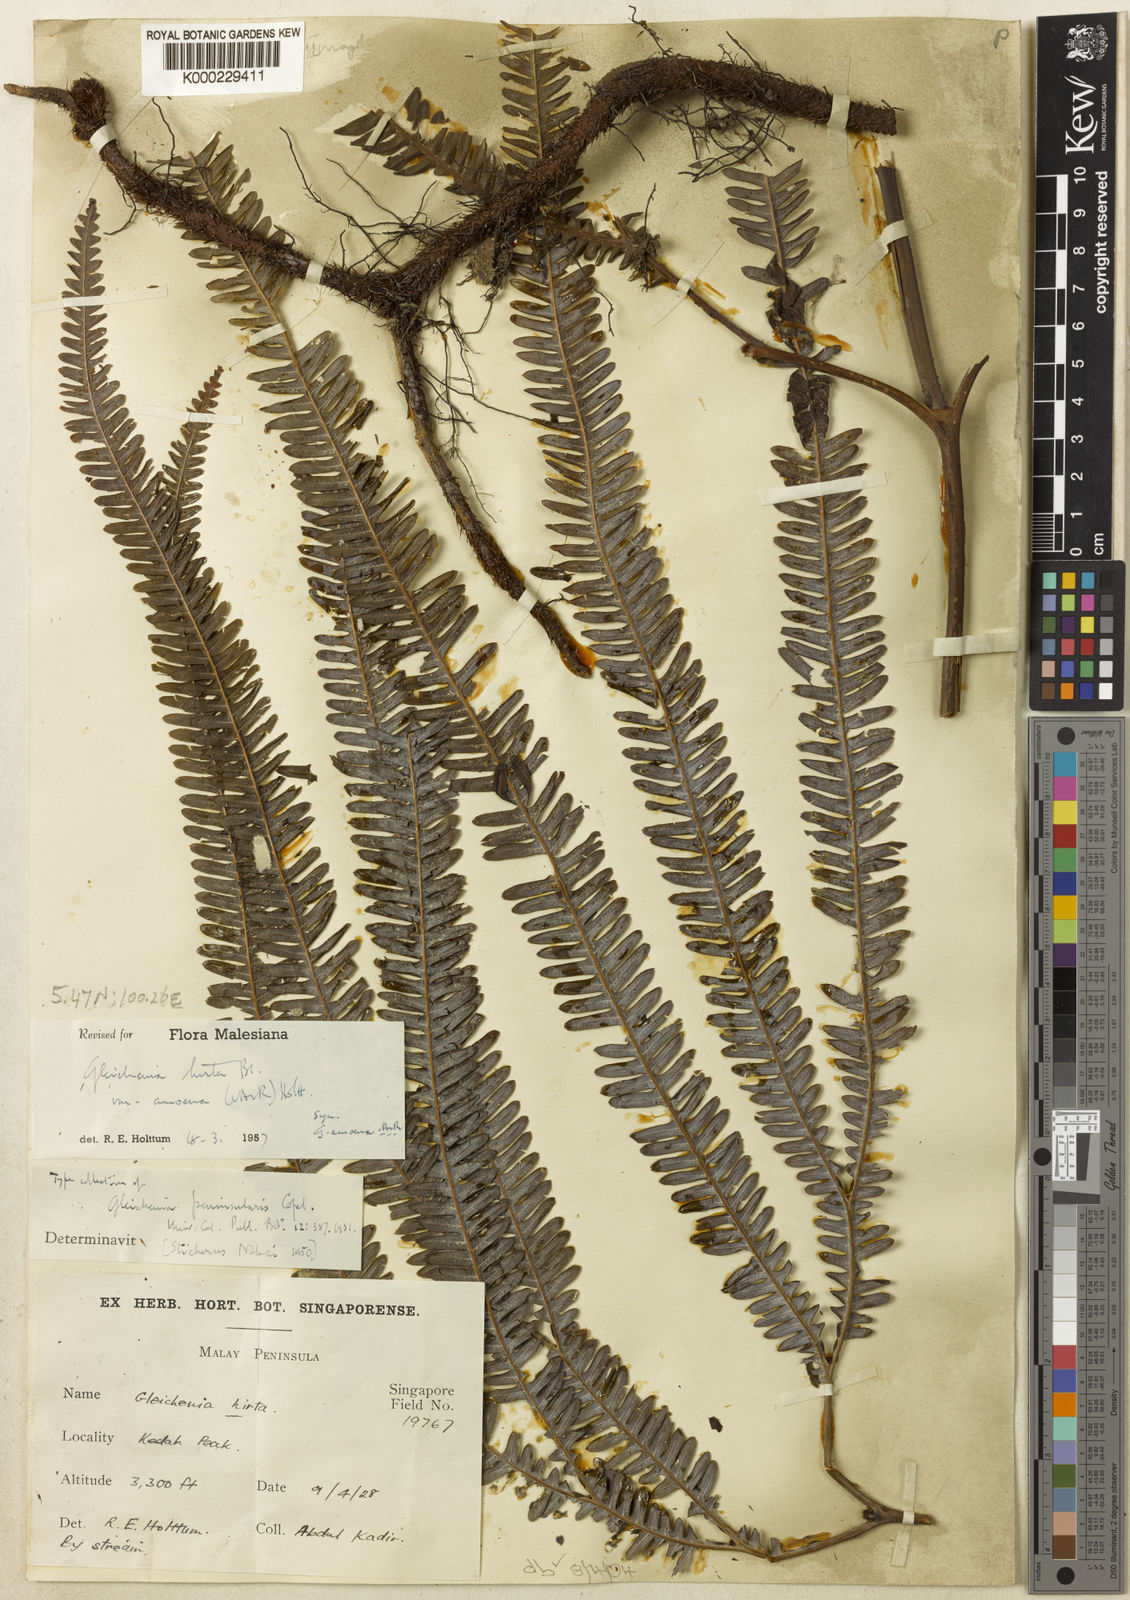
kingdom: Plantae
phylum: Tracheophyta
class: Polypodiopsida
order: Gleicheniales
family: Gleicheniaceae
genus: Sticherus
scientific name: Sticherus hirtus
